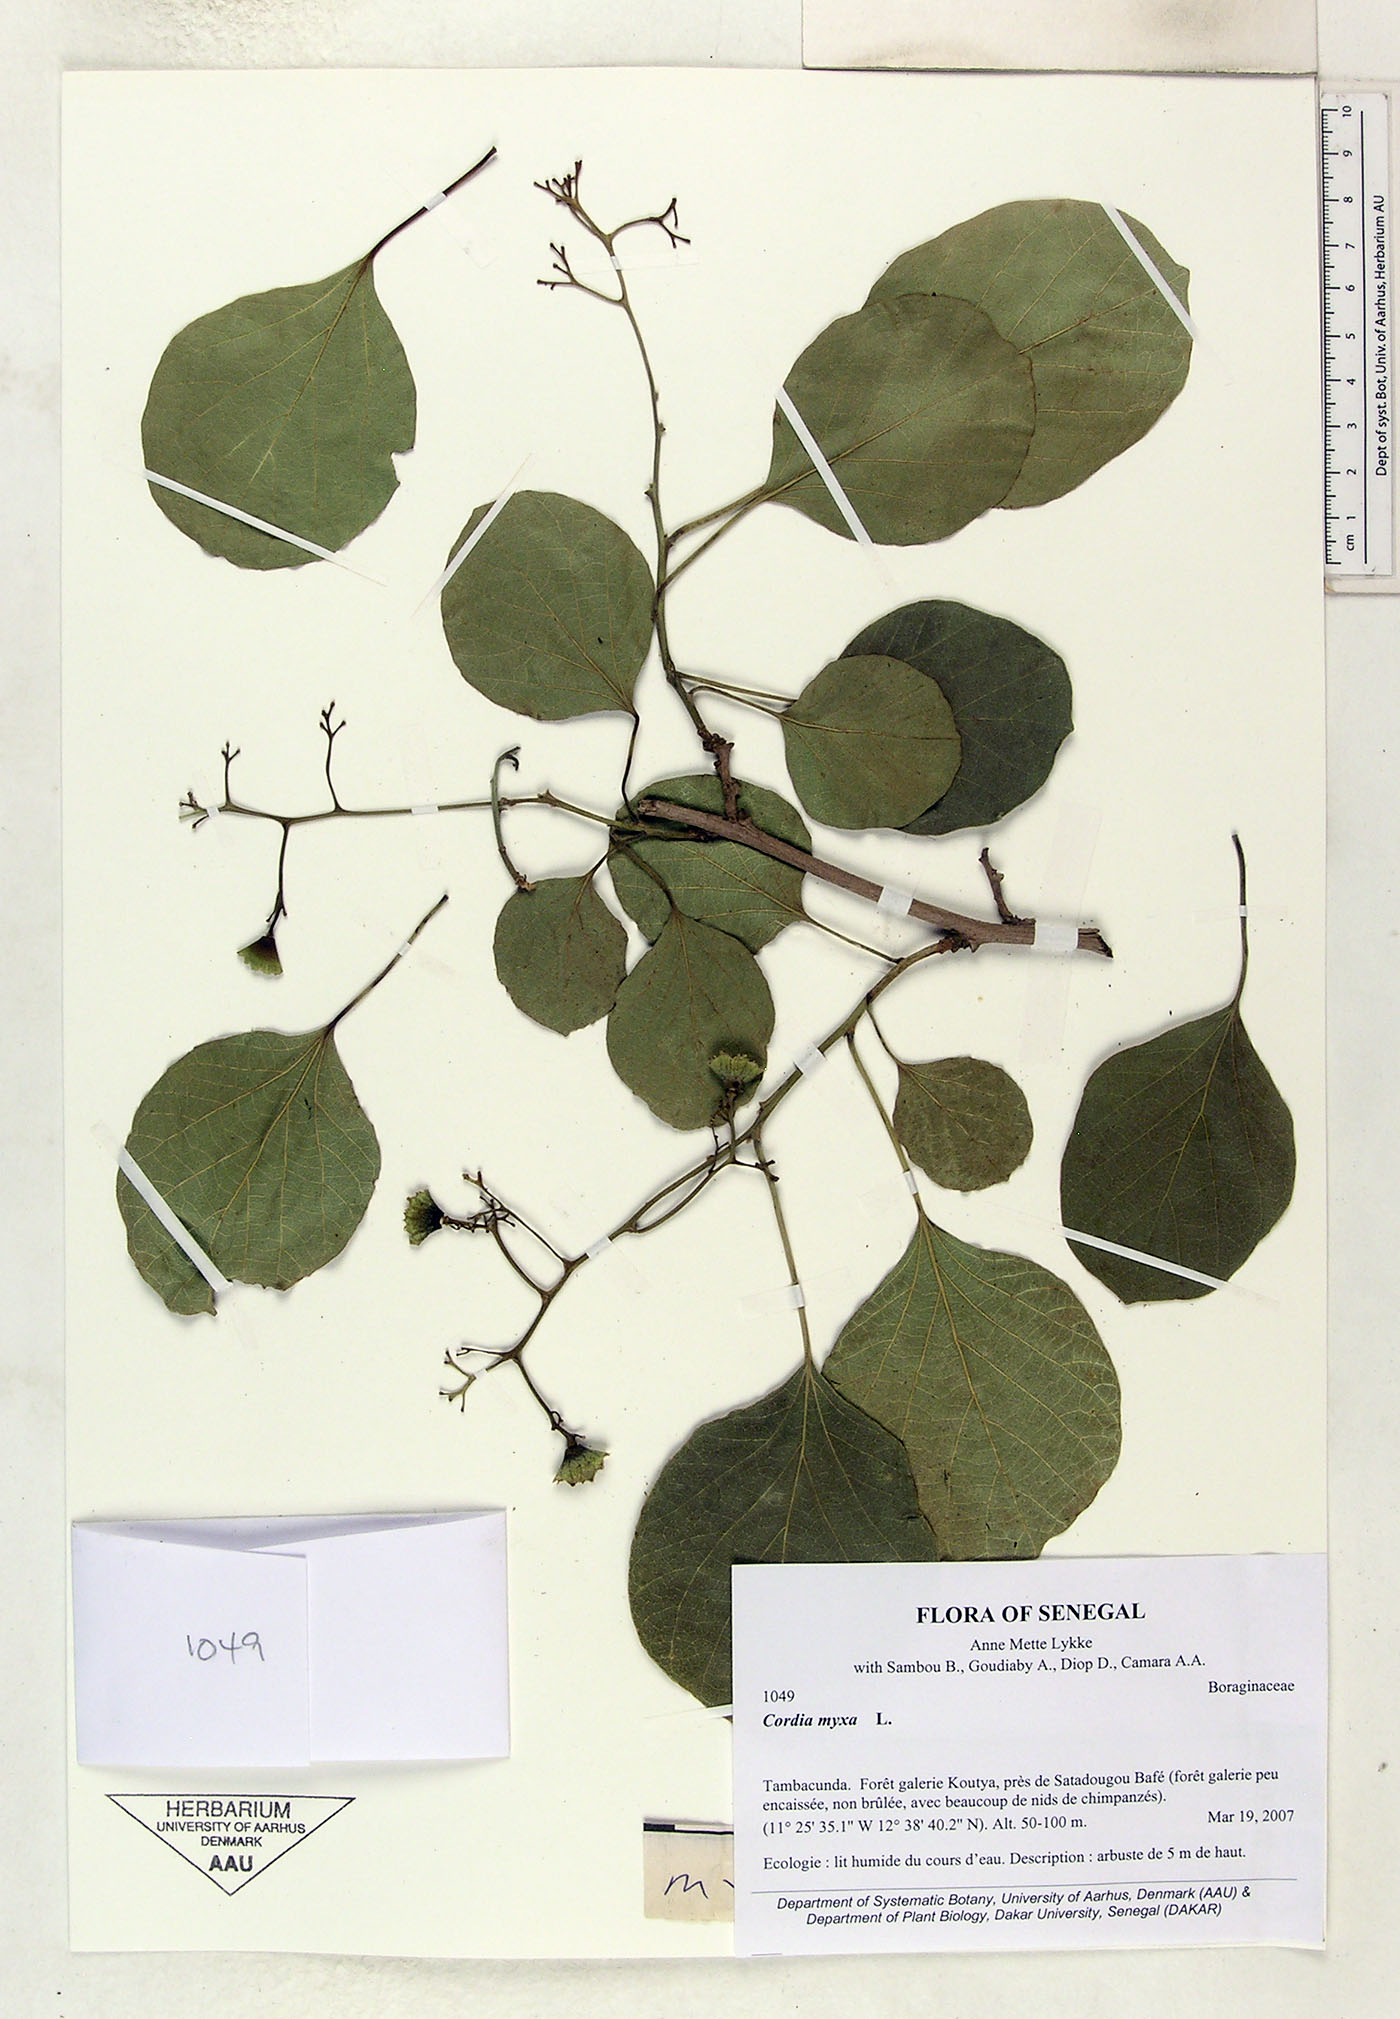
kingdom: Plantae
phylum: Tracheophyta
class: Magnoliopsida
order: Boraginales
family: Cordiaceae
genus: Cordia
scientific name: Cordia myxa
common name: Assyrian plum
